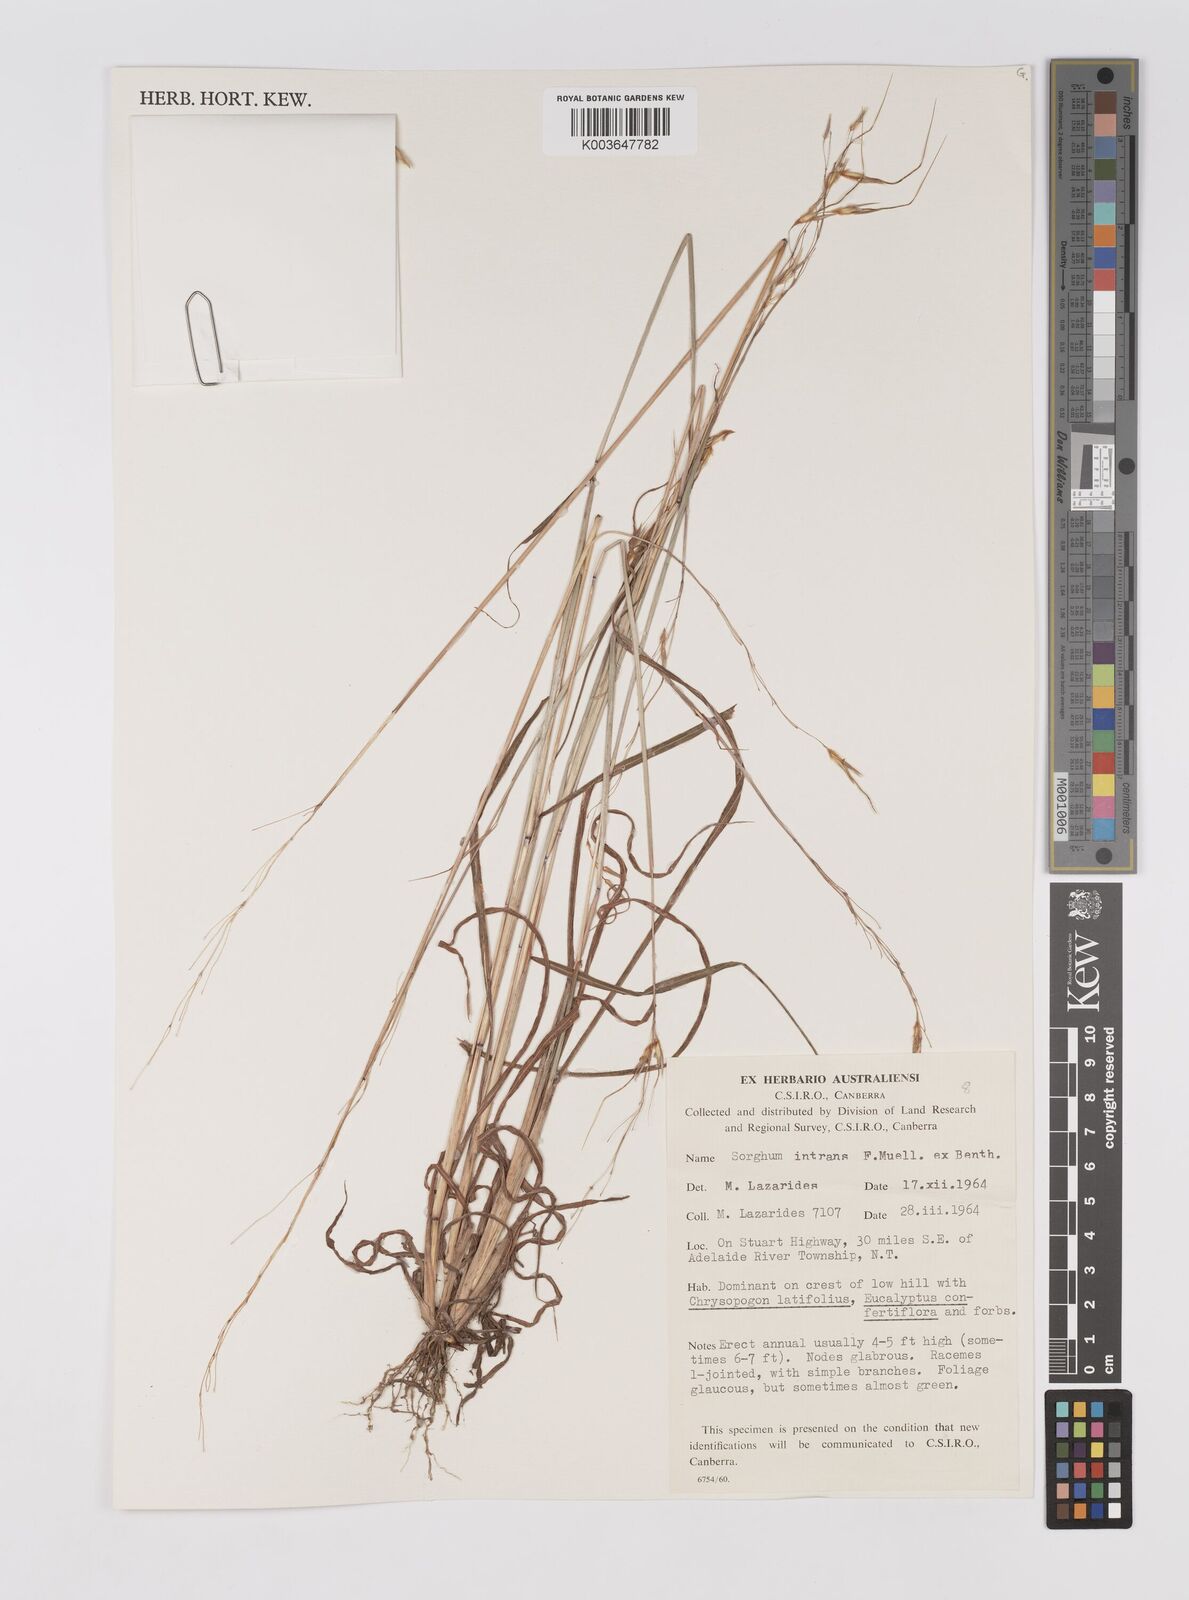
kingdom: Plantae
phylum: Tracheophyta
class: Liliopsida
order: Poales
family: Poaceae
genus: Sarga
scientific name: Sarga intrans
